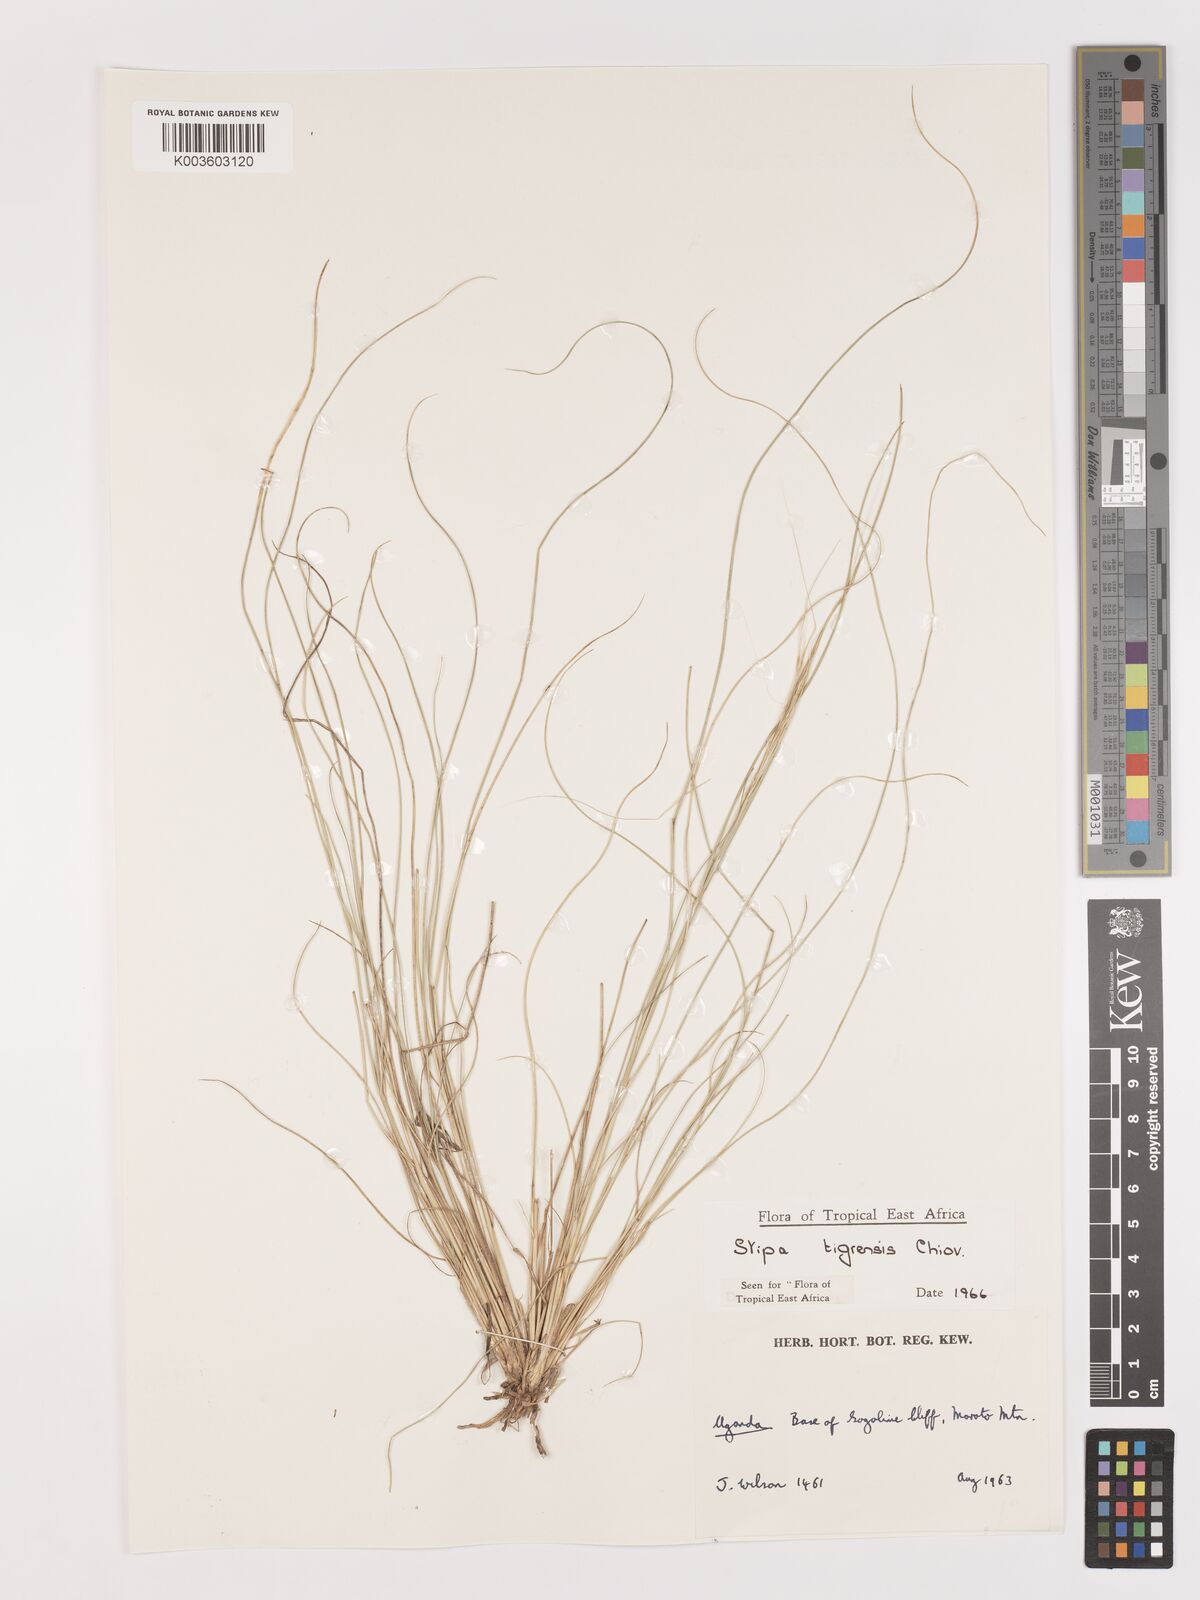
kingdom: Plantae
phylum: Tracheophyta
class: Liliopsida
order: Poales
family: Poaceae
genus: Stipa
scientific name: Stipa tigrensis
